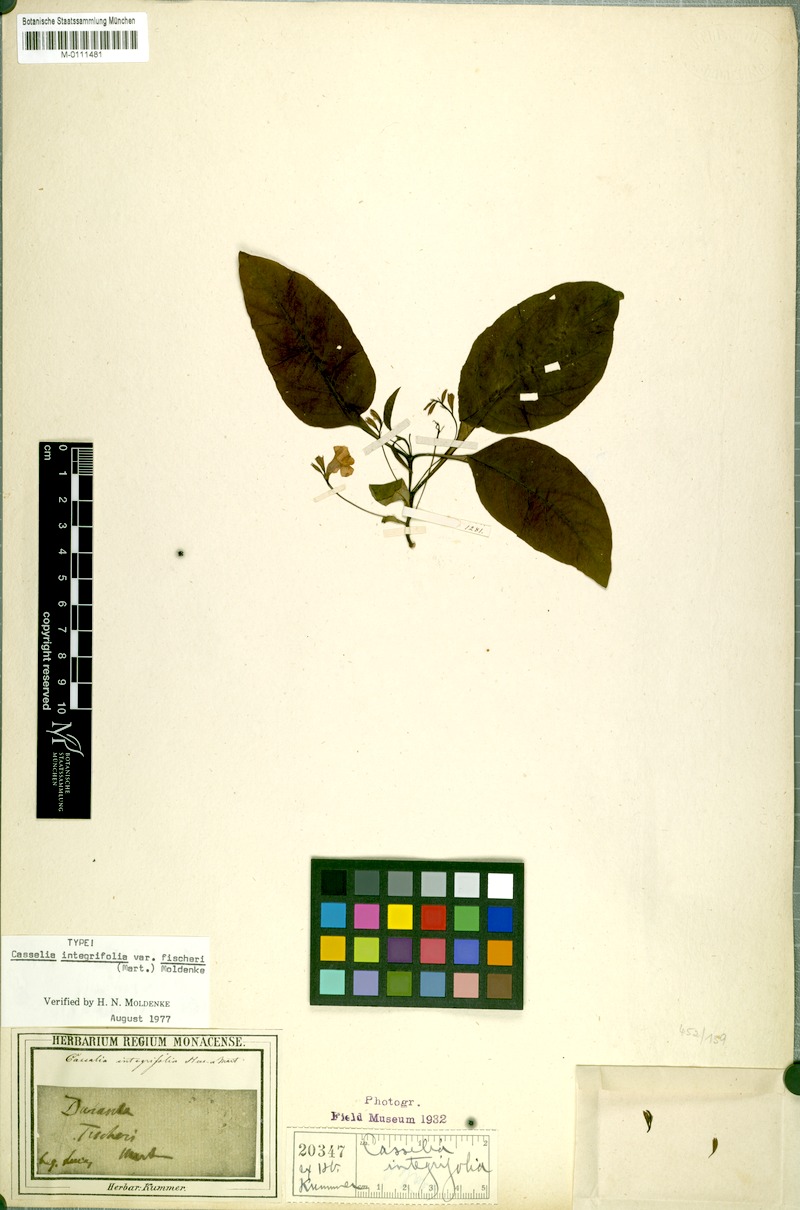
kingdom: Plantae
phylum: Tracheophyta
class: Magnoliopsida
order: Lamiales
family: Verbenaceae
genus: Casselia
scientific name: Casselia integrifolia
